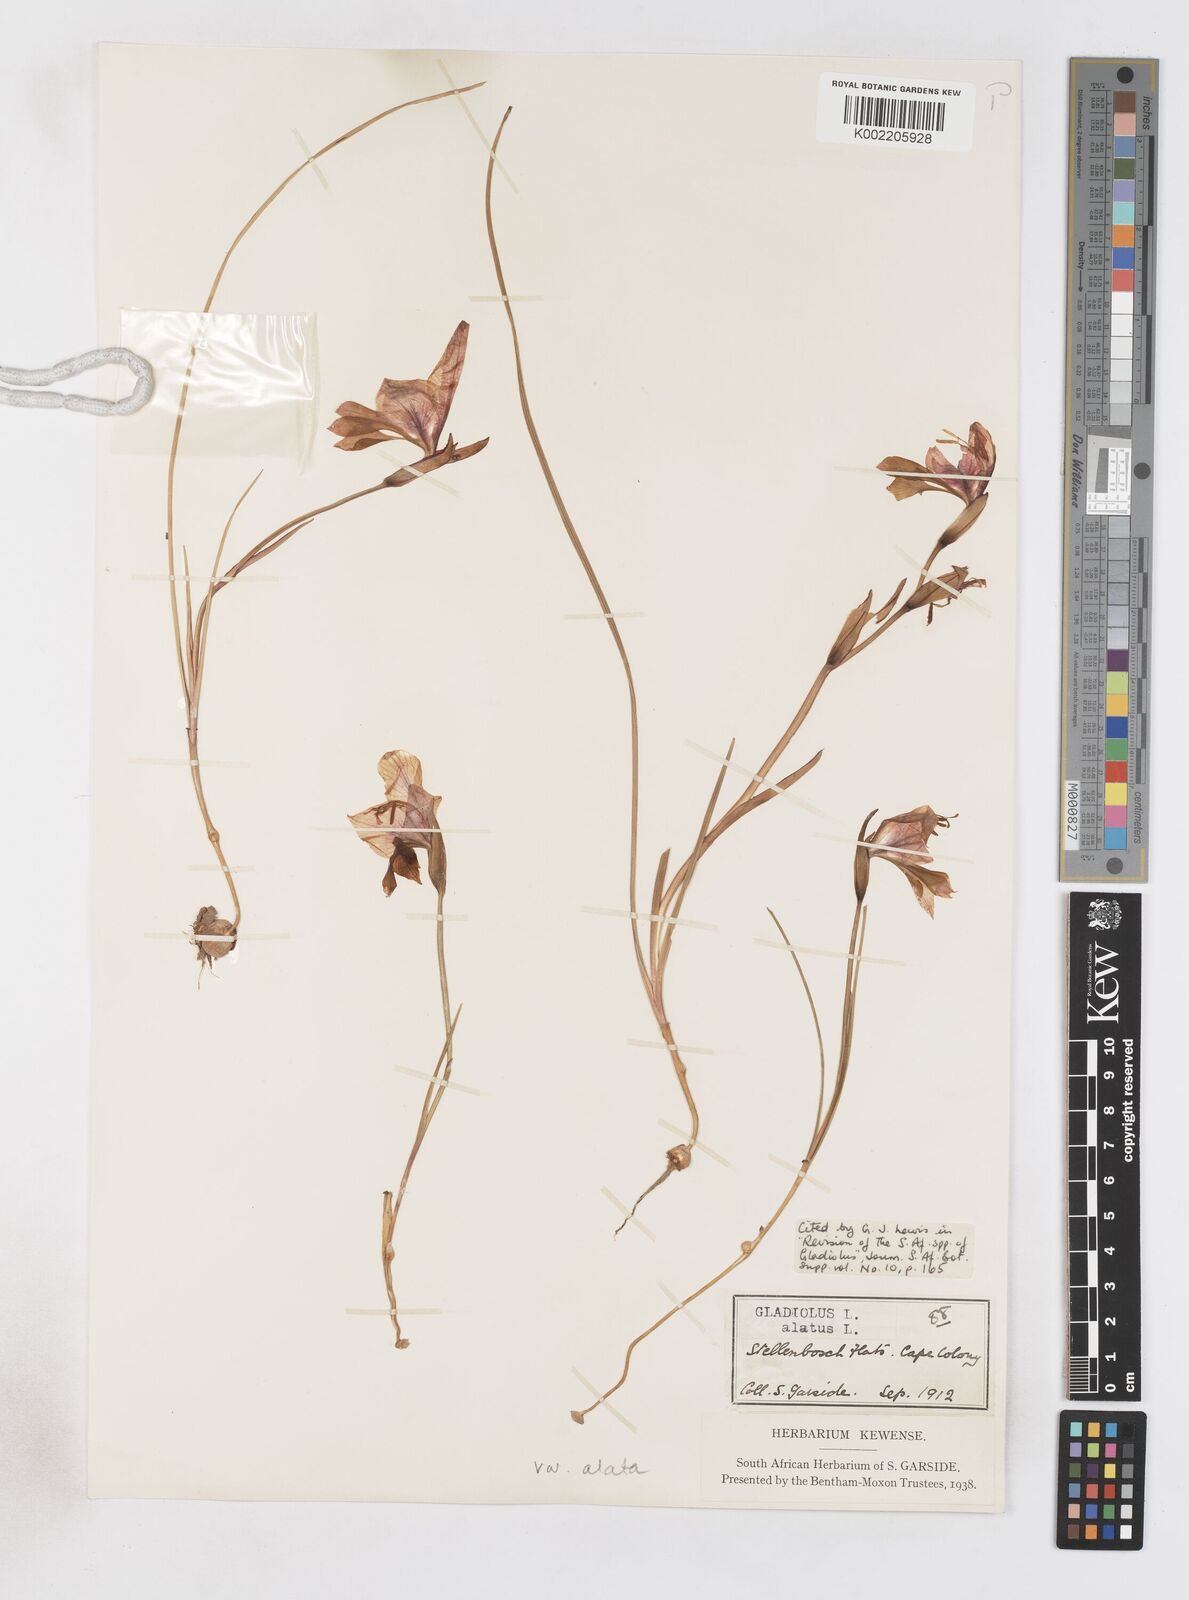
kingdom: Plantae
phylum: Tracheophyta
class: Liliopsida
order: Asparagales
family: Iridaceae
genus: Gladiolus
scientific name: Gladiolus alatus
